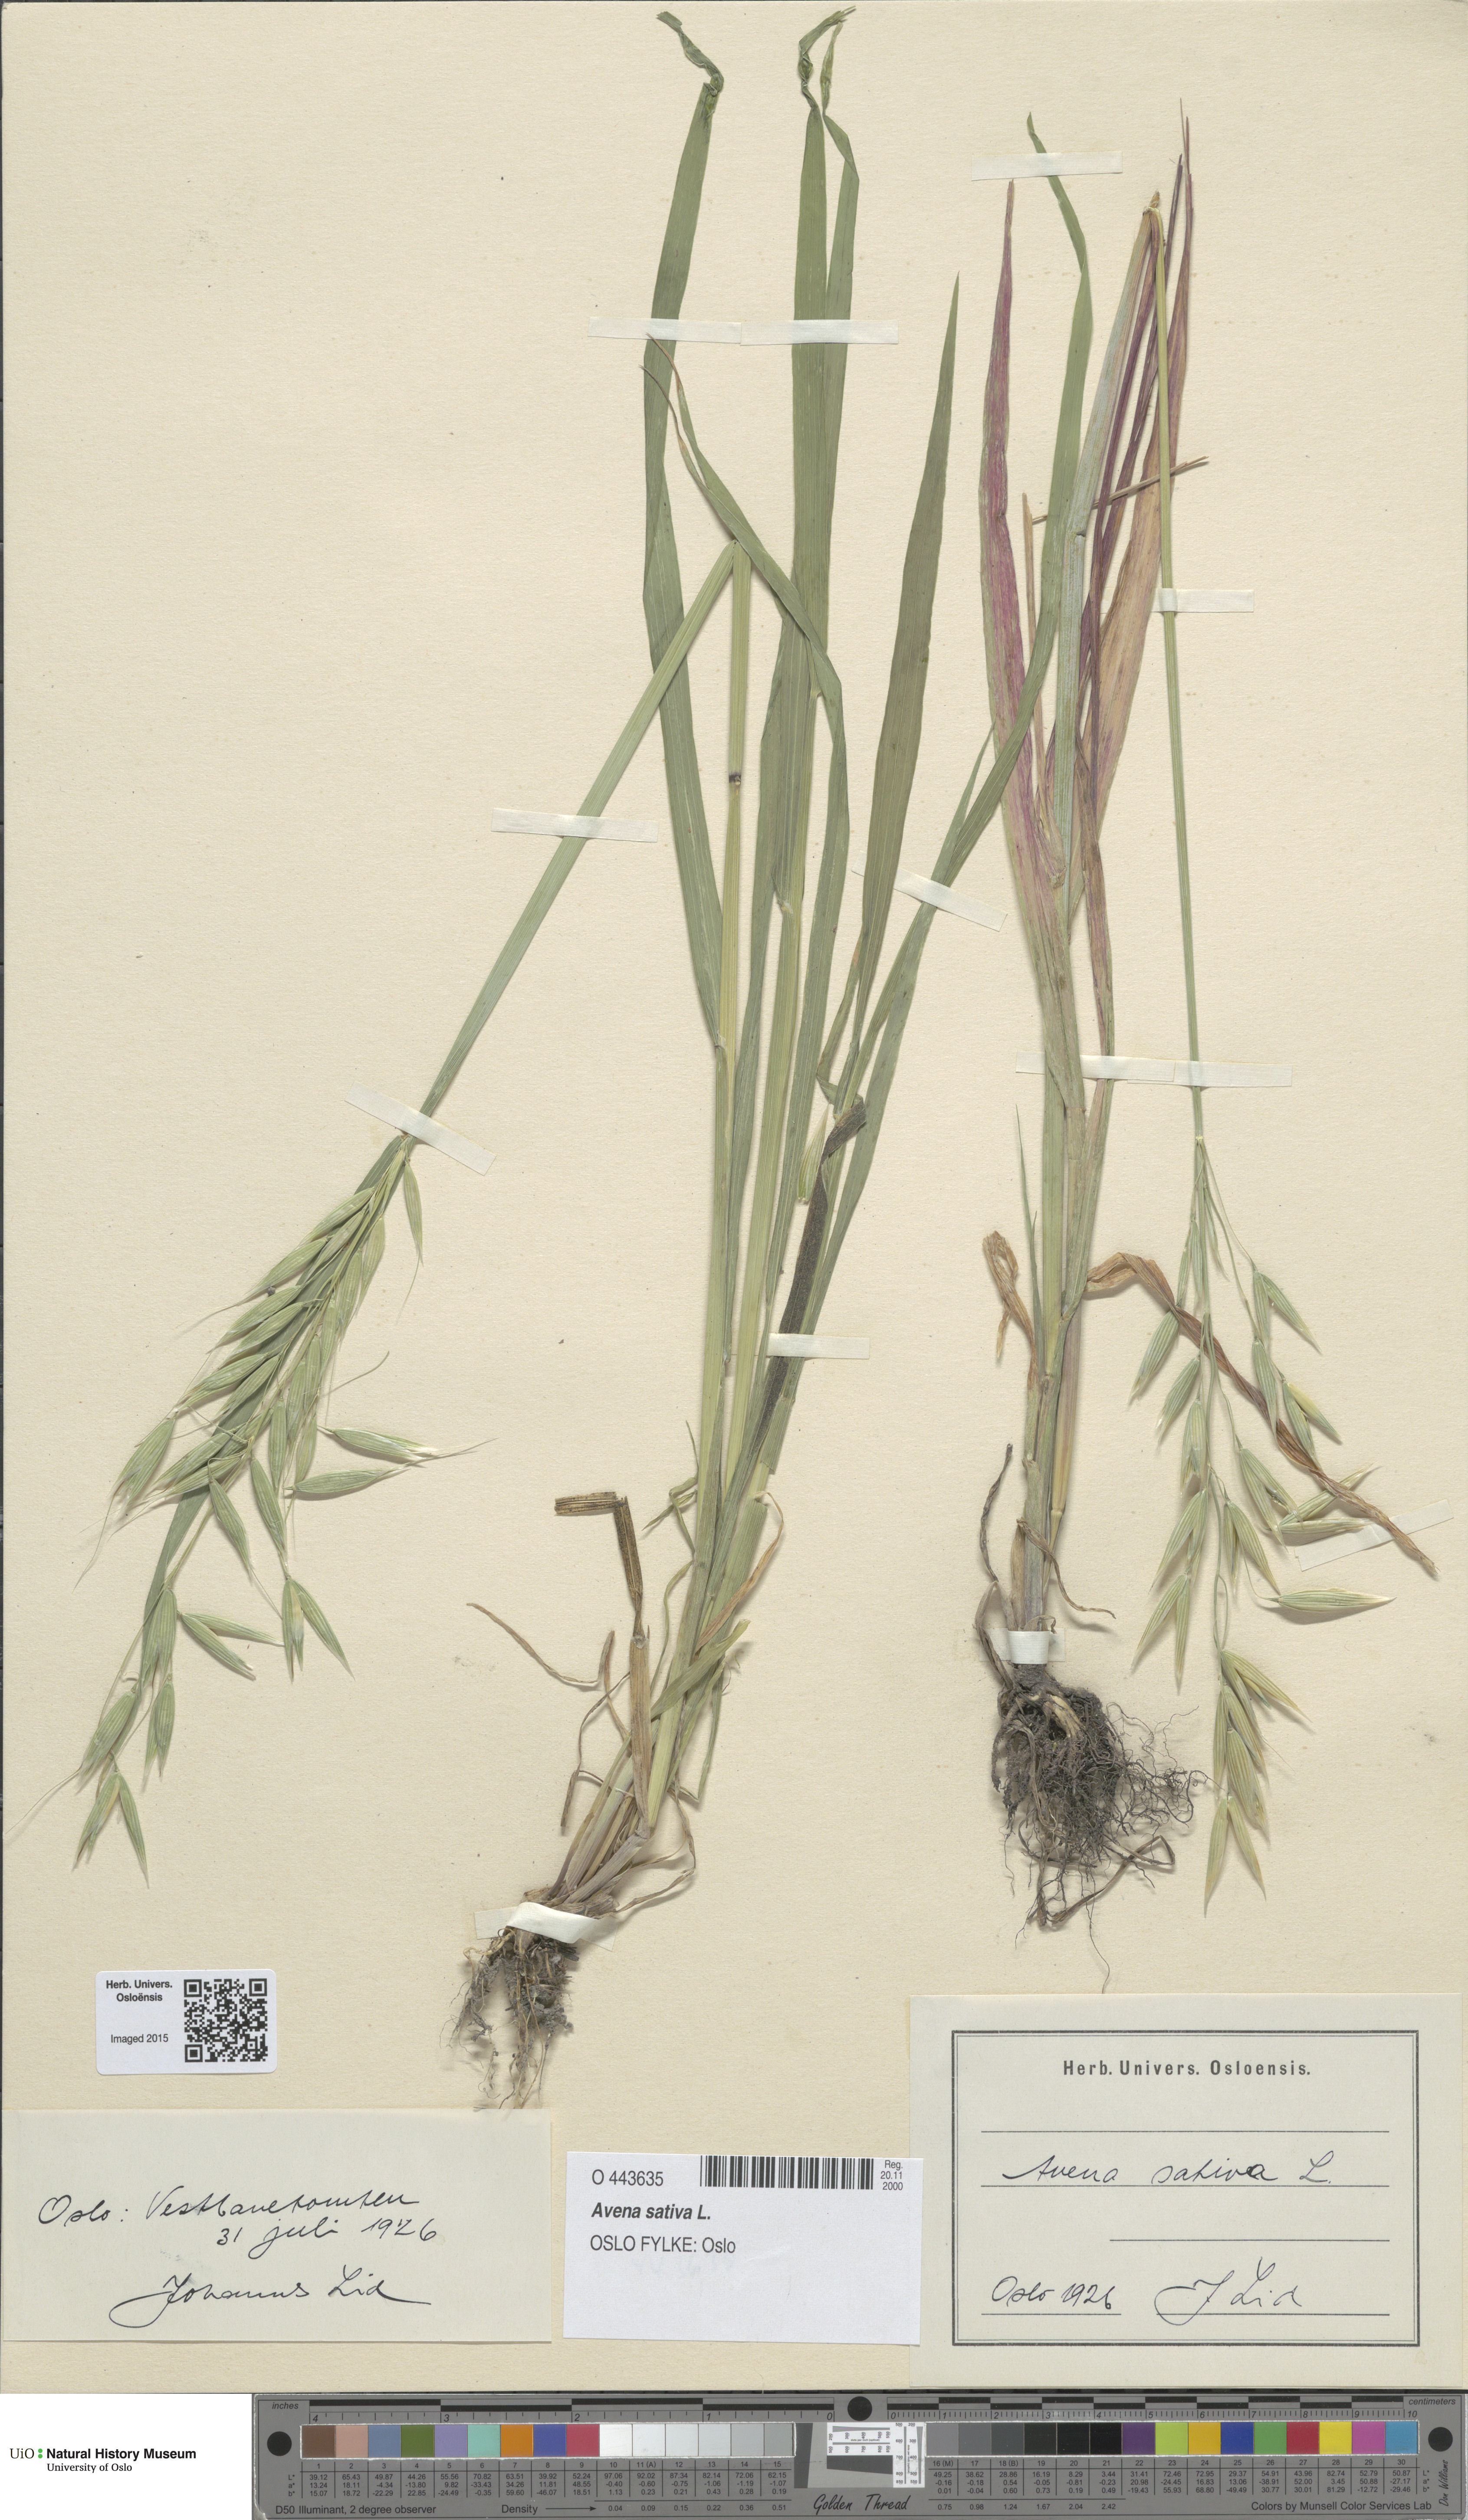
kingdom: Plantae
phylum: Tracheophyta
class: Liliopsida
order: Poales
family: Poaceae
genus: Avena
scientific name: Avena sativa
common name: Oat
